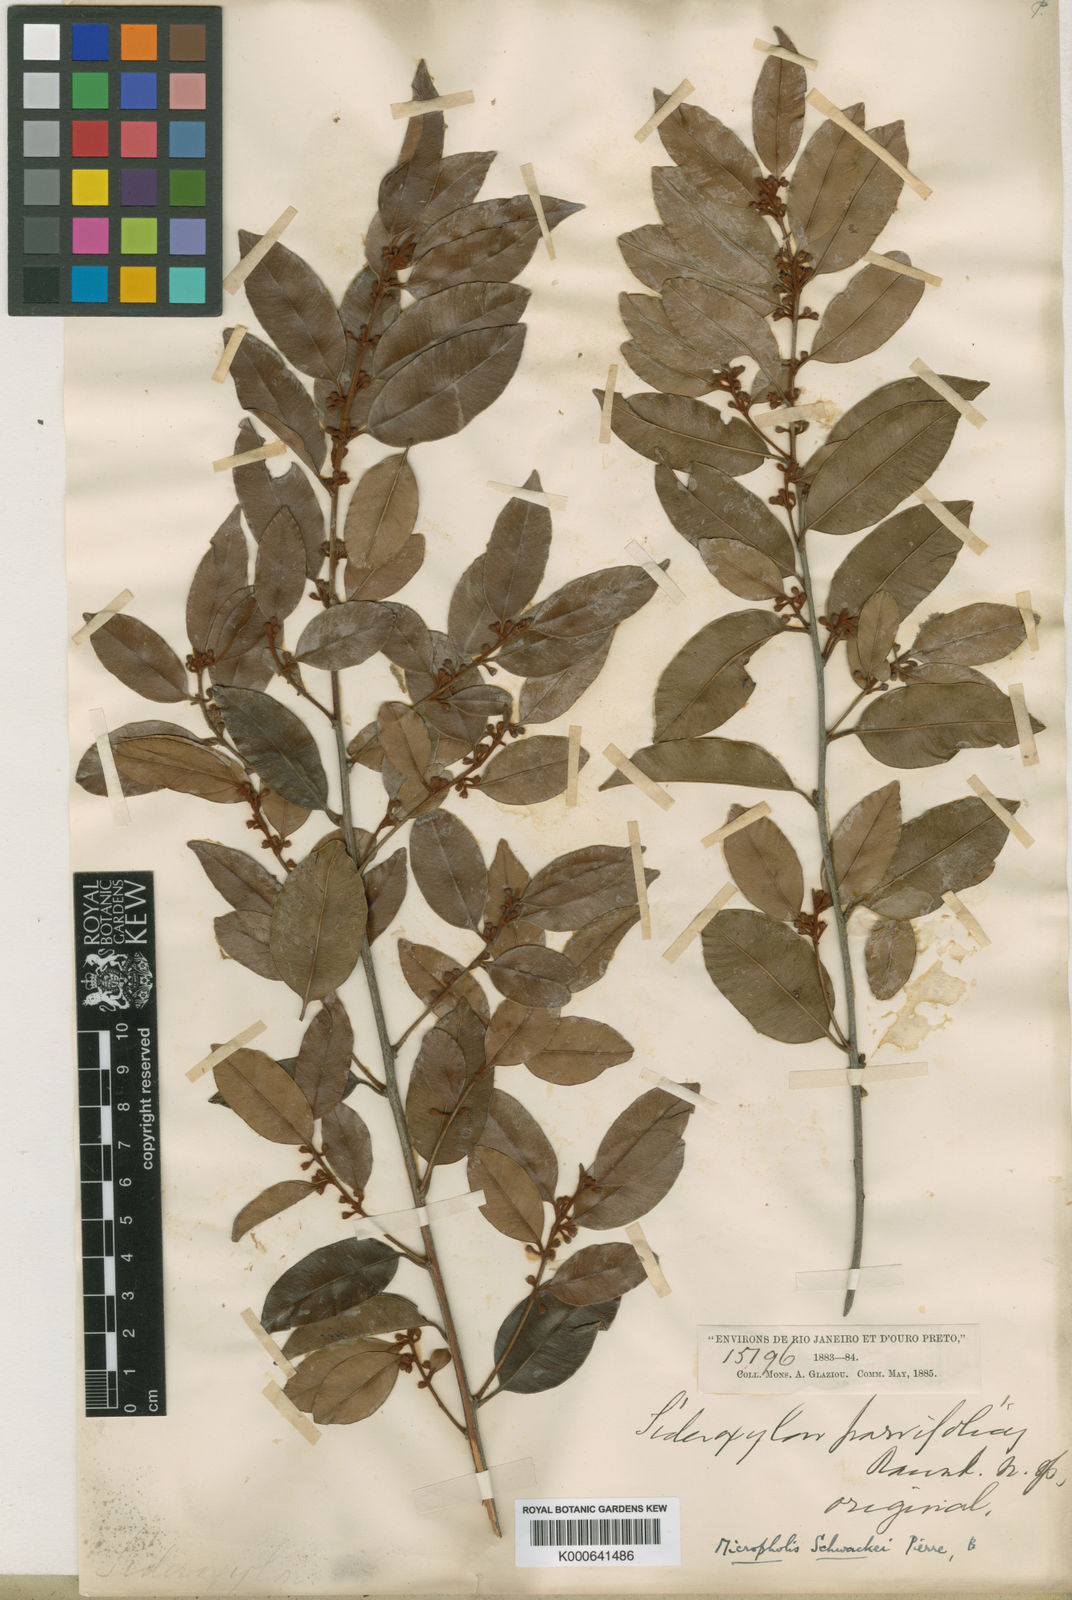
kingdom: Plantae
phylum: Tracheophyta
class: Magnoliopsida
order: Ericales
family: Sapotaceae
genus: Micropholis
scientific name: Micropholis gnaphaloclados
